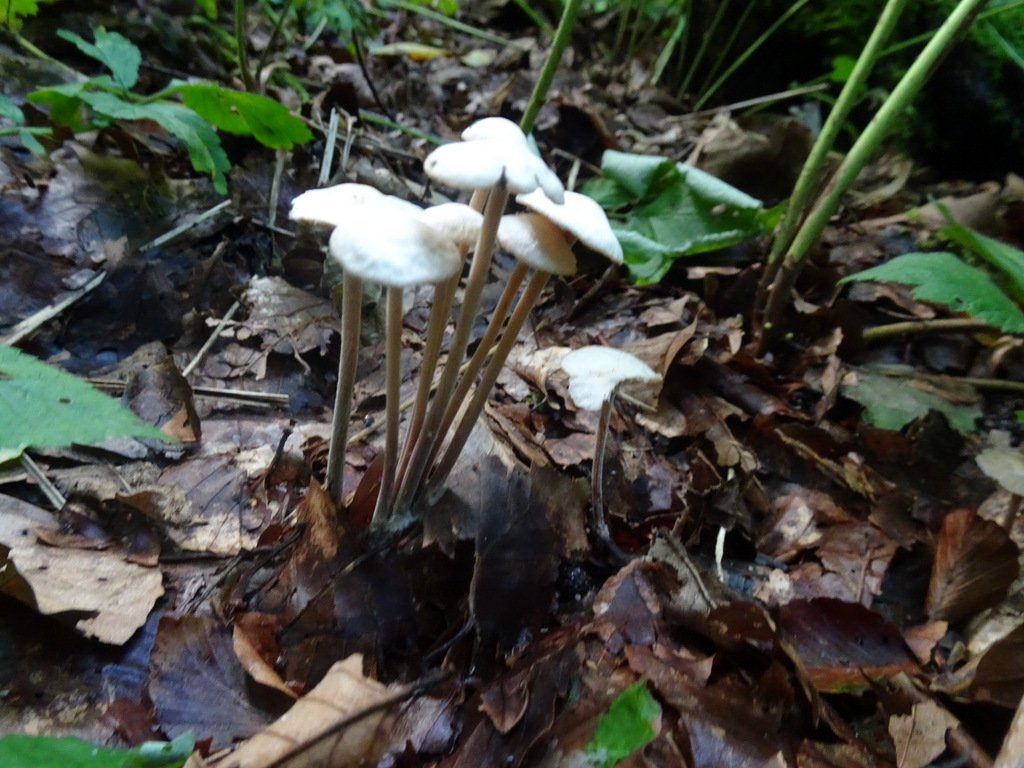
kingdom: Fungi
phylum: Basidiomycota
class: Agaricomycetes
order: Agaricales
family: Omphalotaceae
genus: Collybiopsis
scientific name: Collybiopsis confluens
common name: knippe-fladhat
